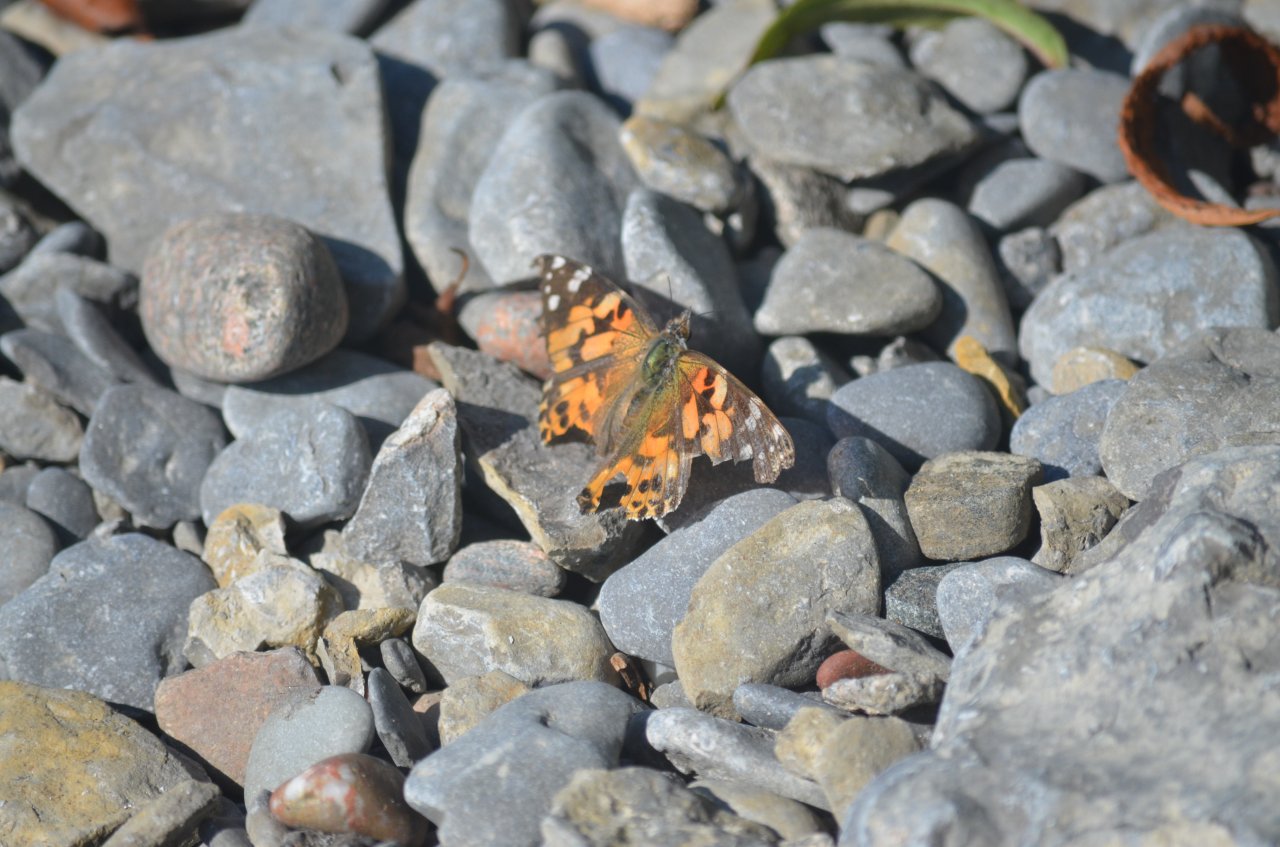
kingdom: Animalia
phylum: Arthropoda
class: Insecta
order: Lepidoptera
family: Nymphalidae
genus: Vanessa
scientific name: Vanessa cardui
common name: Painted Lady
